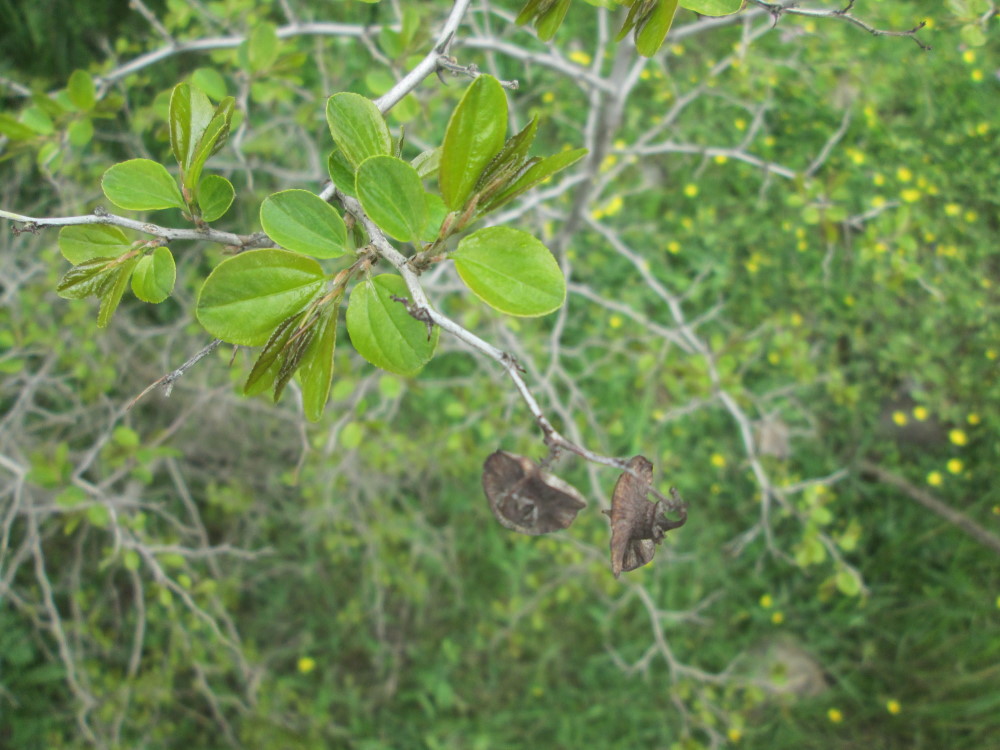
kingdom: Plantae
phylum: Tracheophyta
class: Magnoliopsida
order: Rosales
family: Rhamnaceae
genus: Paliurus
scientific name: Paliurus spina-christi
